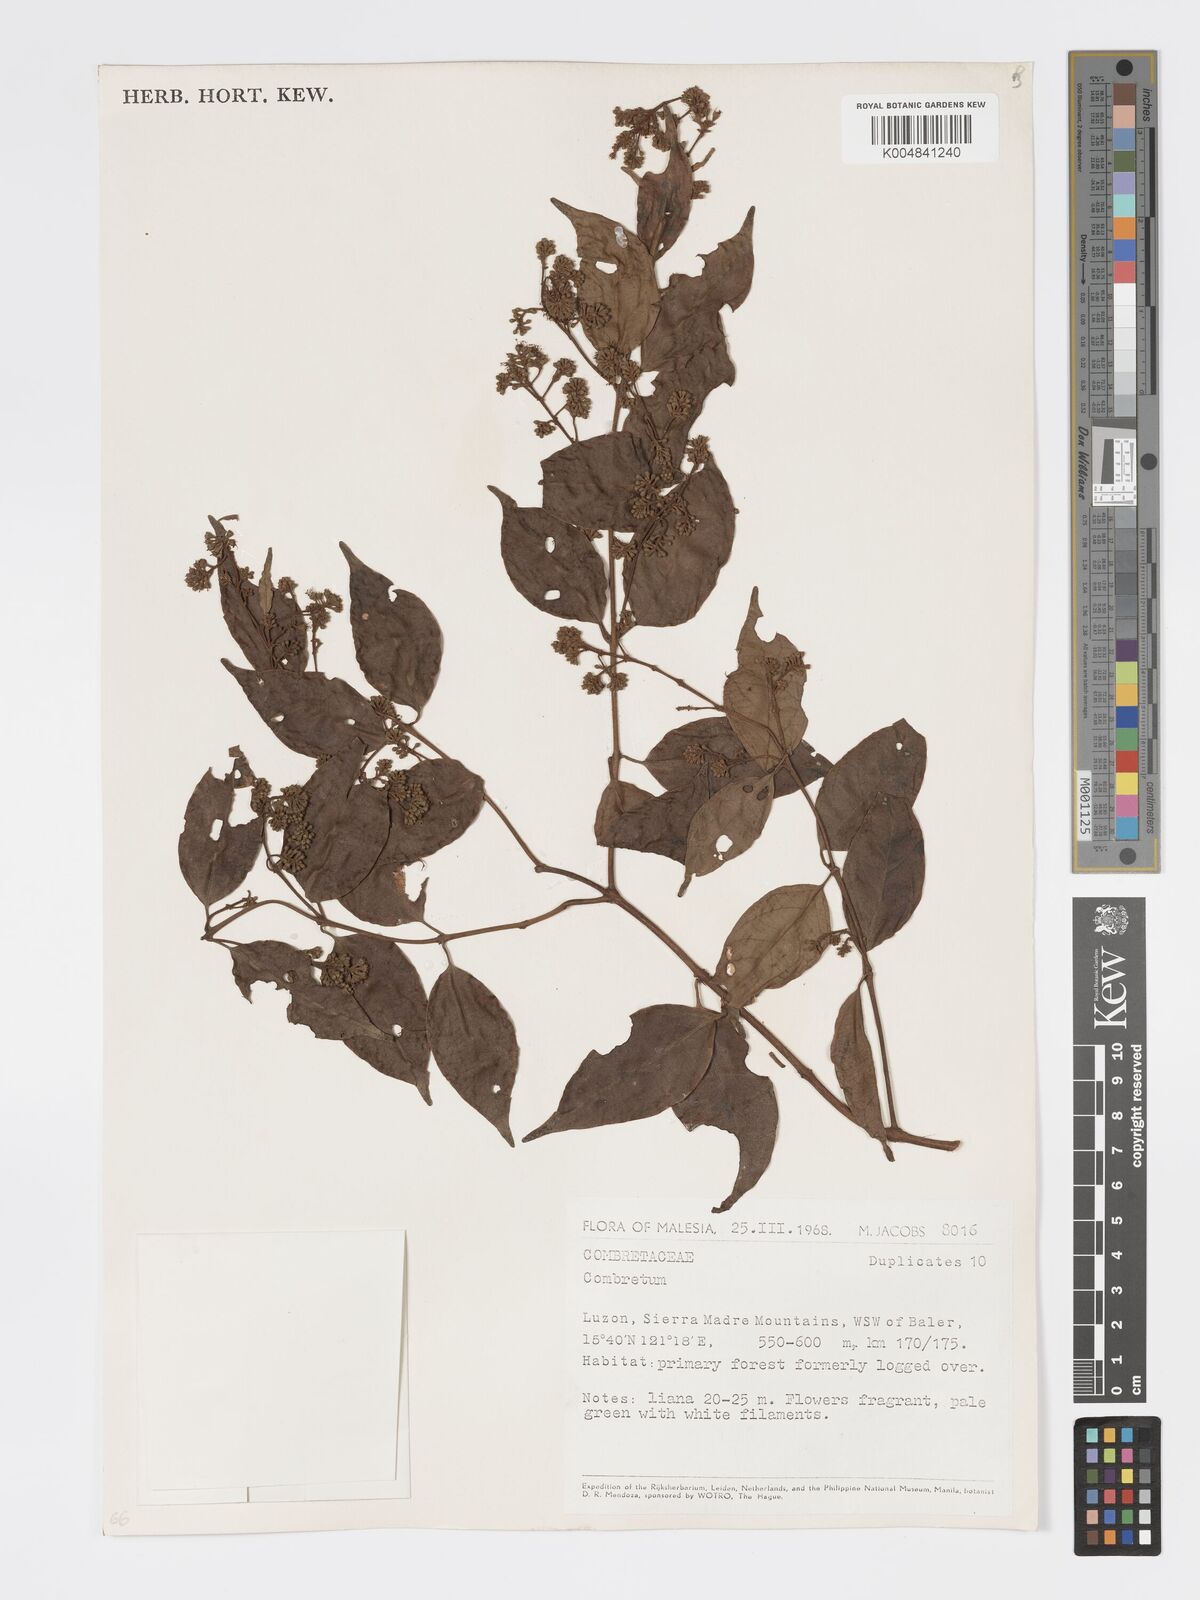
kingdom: Plantae
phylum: Tracheophyta
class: Magnoliopsida
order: Myrtales
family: Combretaceae
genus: Combretum
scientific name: Combretum
